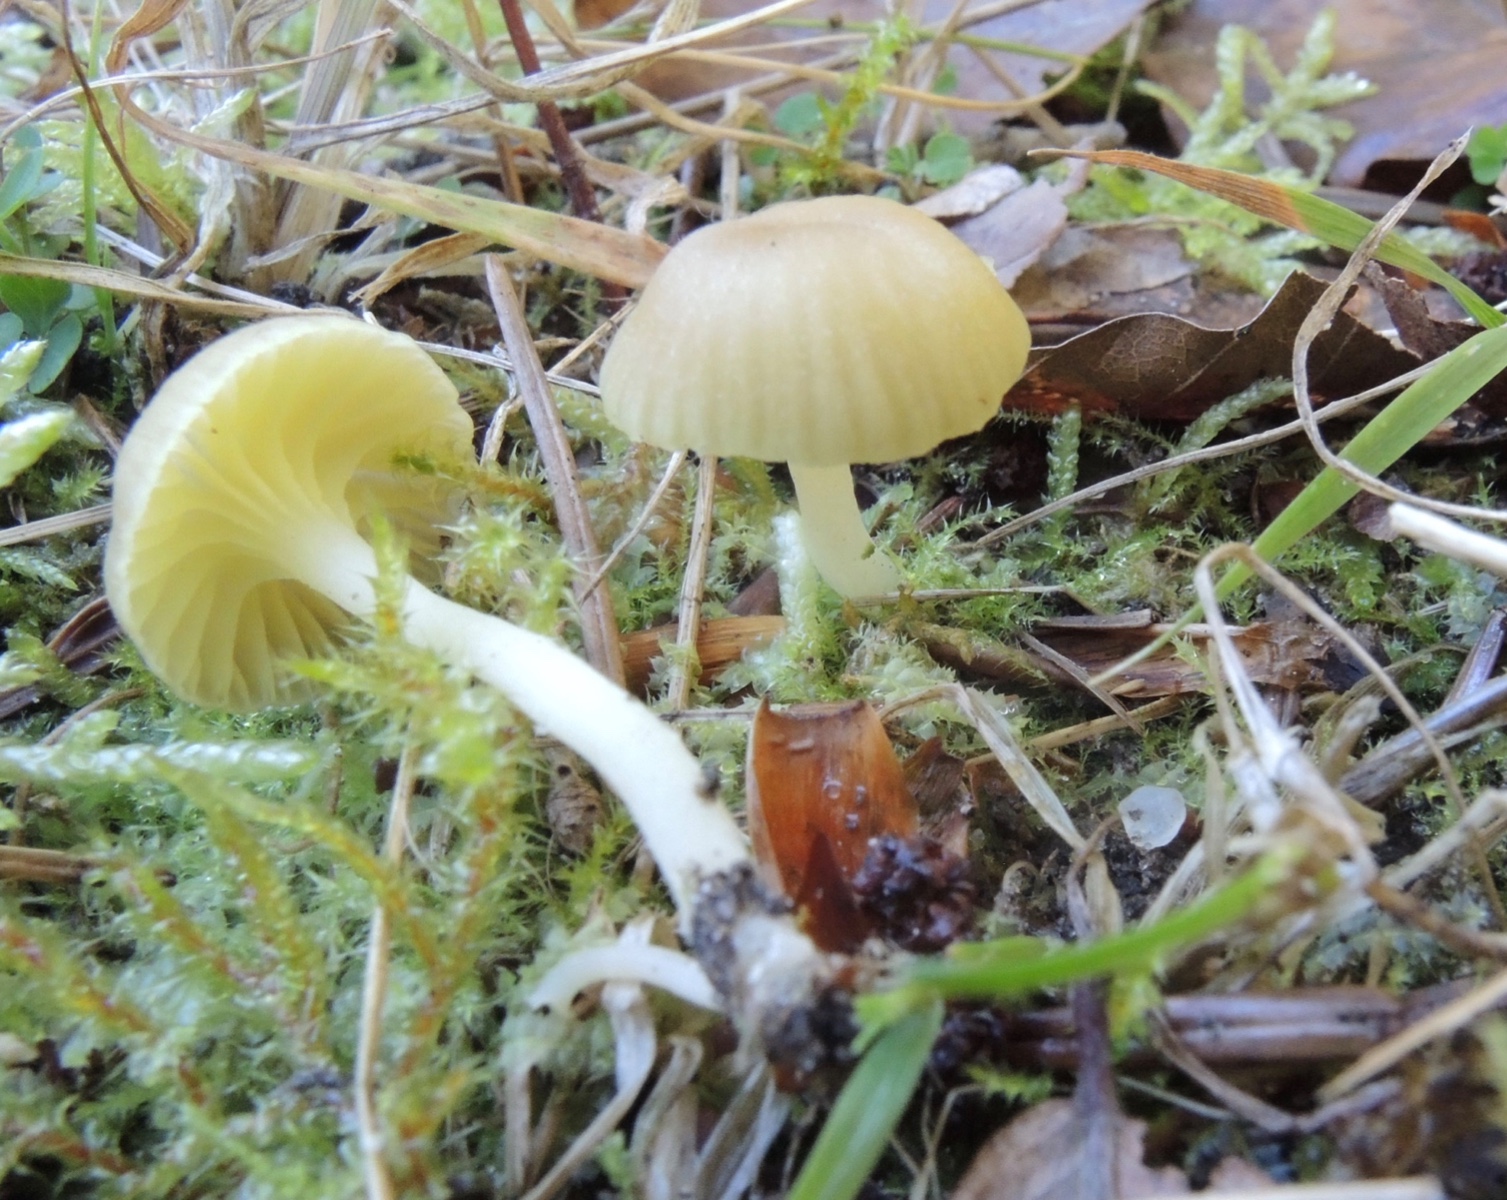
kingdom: Fungi
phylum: Basidiomycota
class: Agaricomycetes
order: Agaricales
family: Hygrophoraceae
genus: Chrysomphalina
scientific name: Chrysomphalina grossula
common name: stød-gyldenblad
